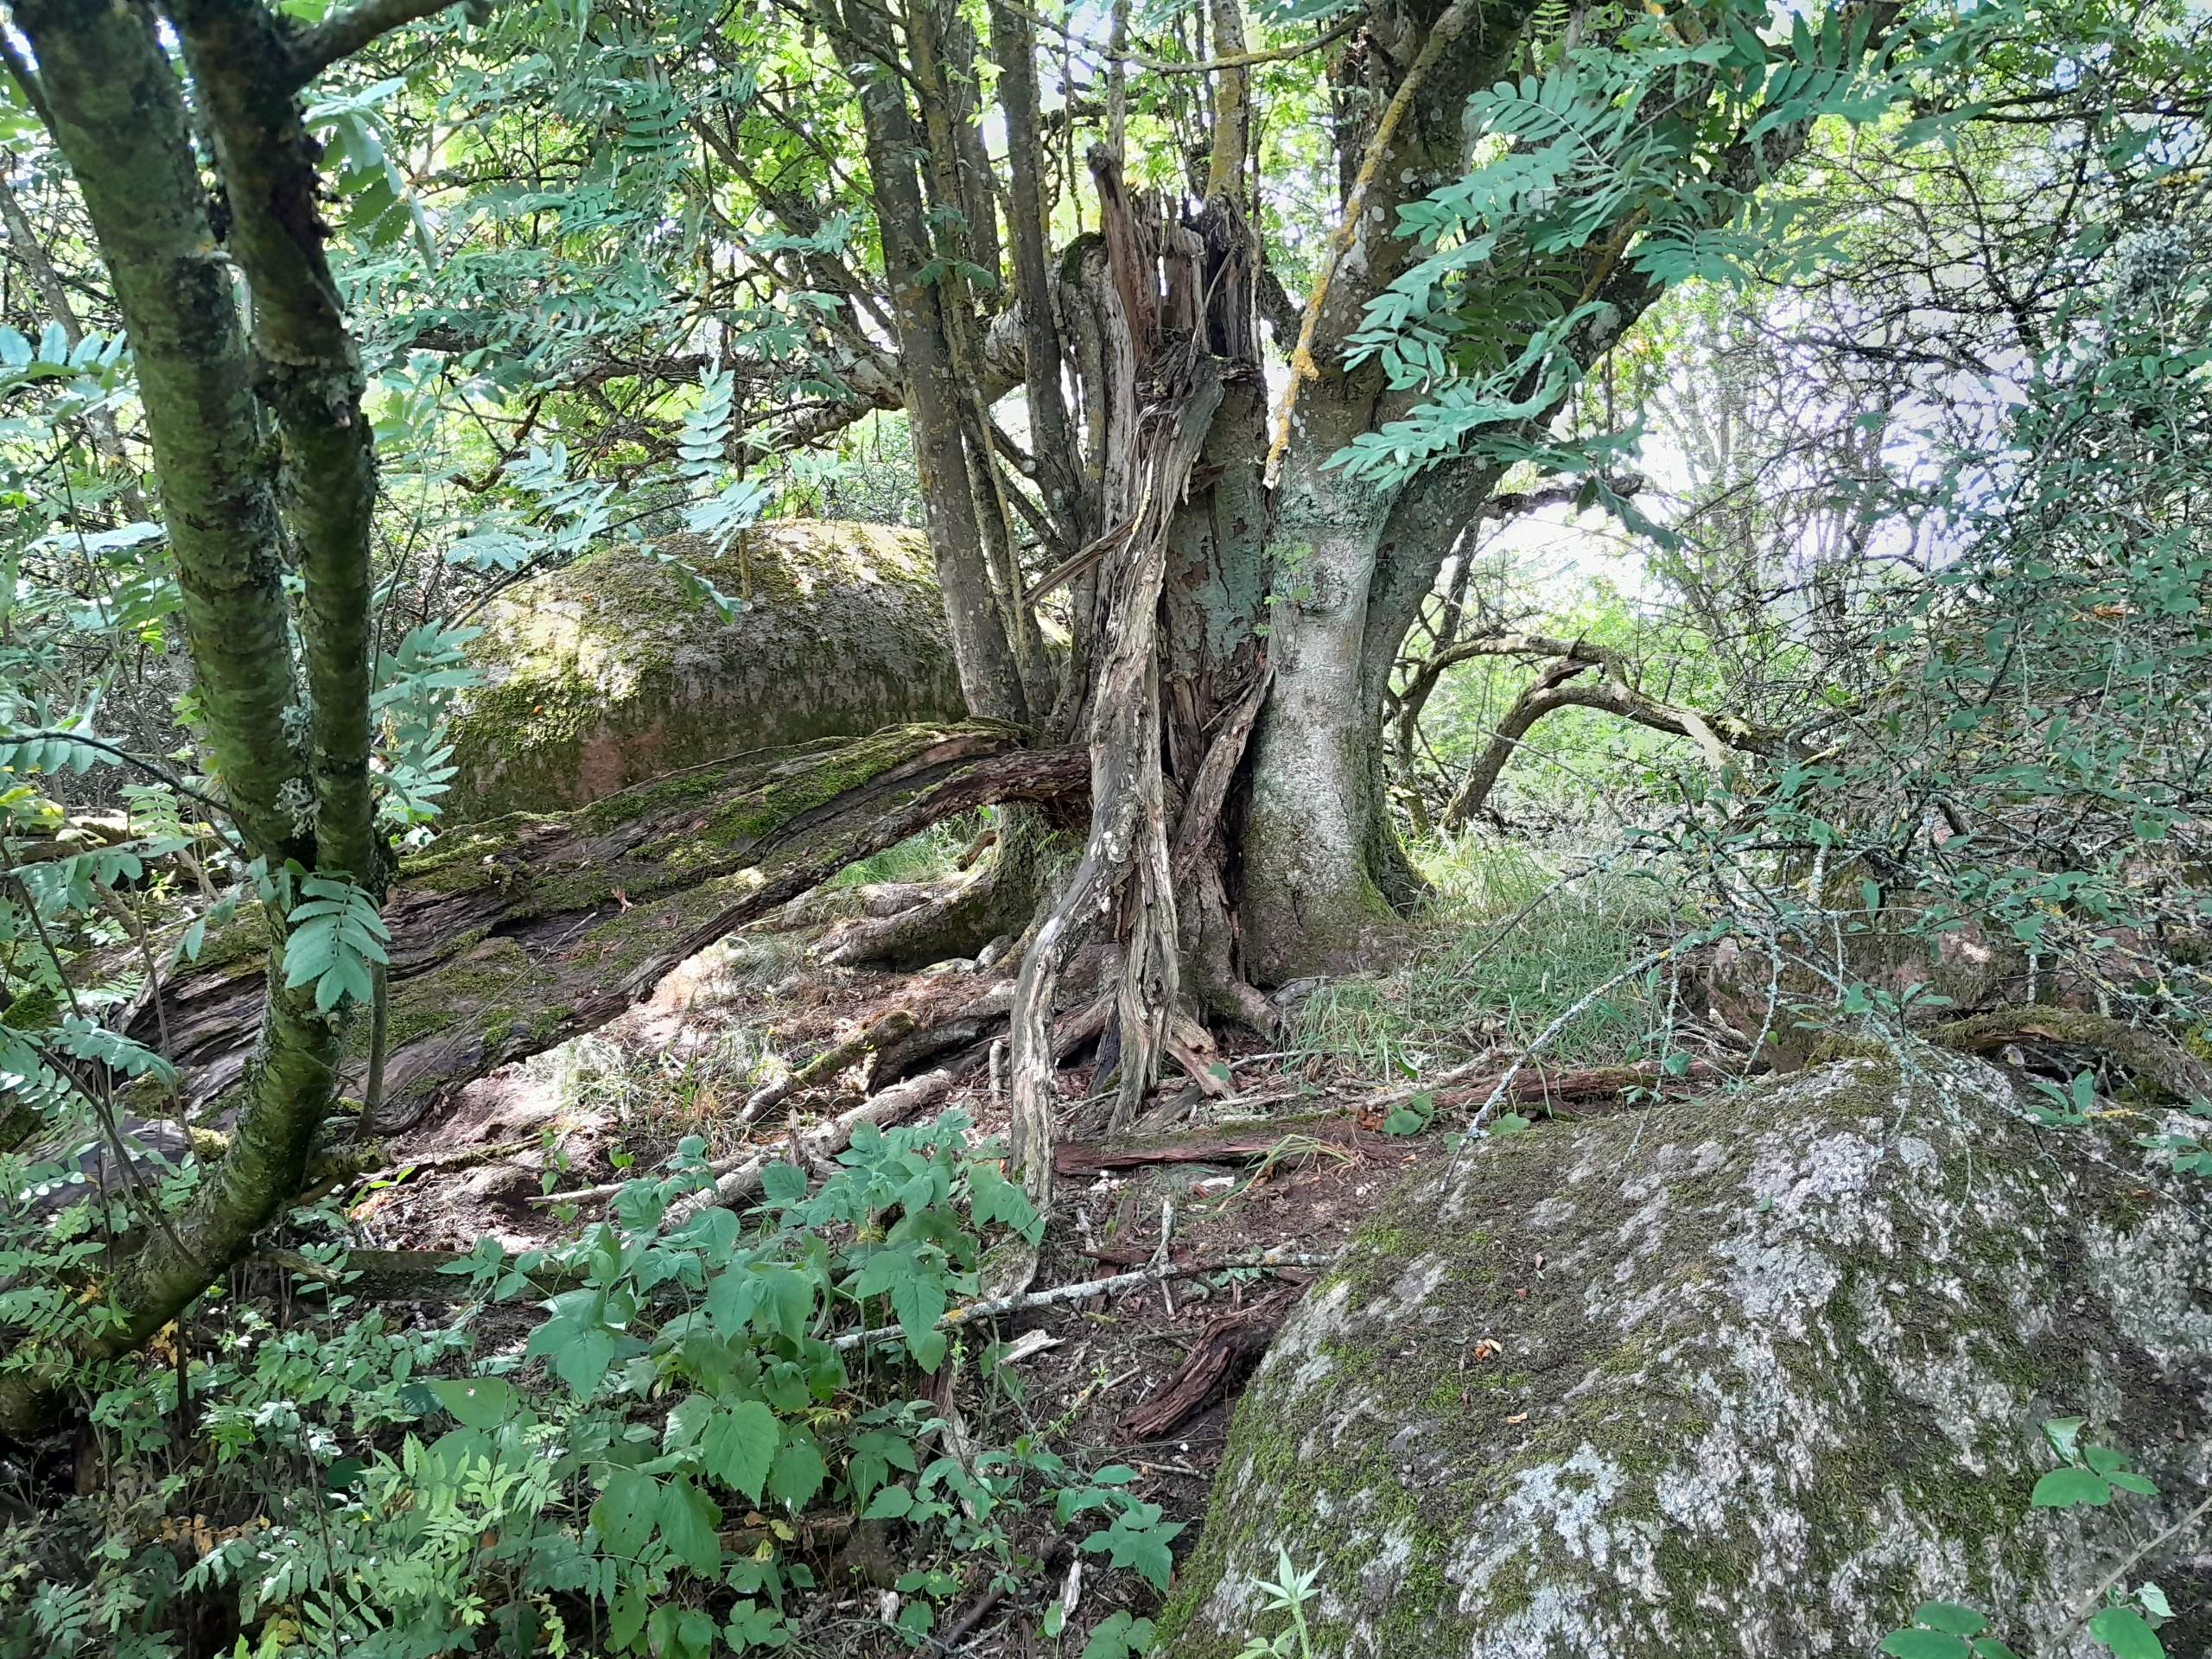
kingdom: Plantae
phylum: Tracheophyta
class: Magnoliopsida
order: Rosales
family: Rosaceae
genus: Sorbus
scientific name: Sorbus aucuparia
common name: Almindelig røn
